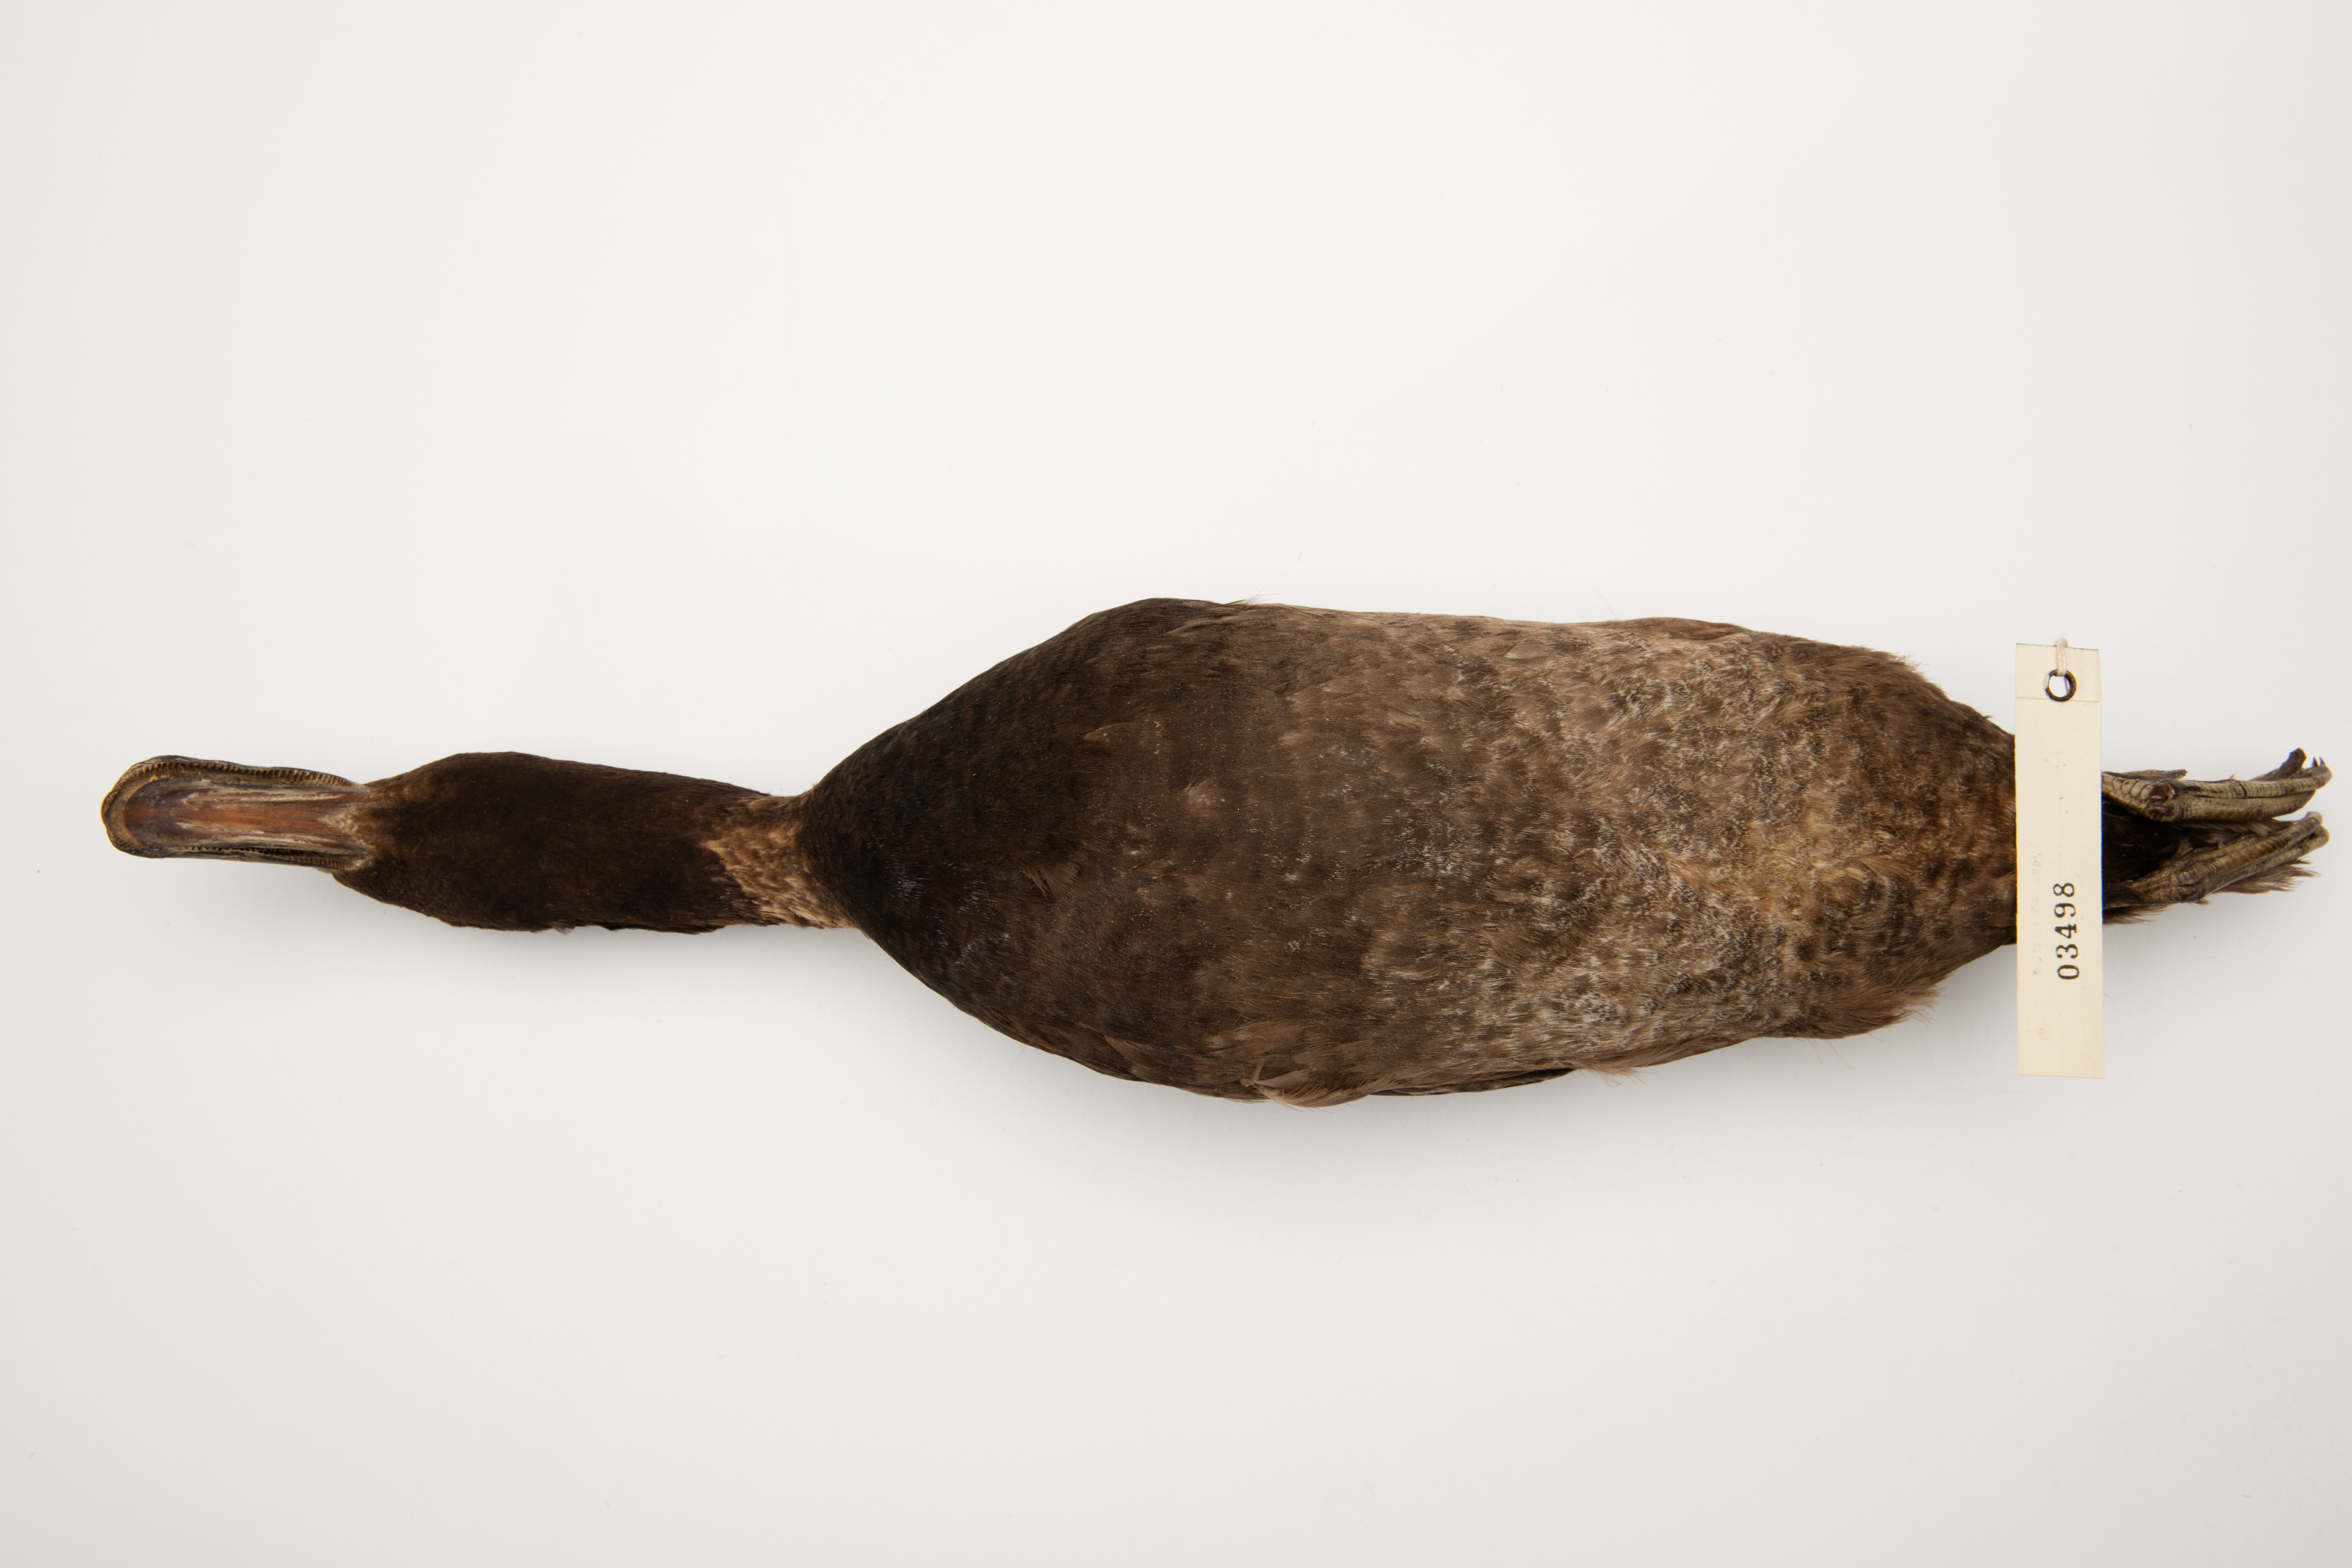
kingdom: Animalia
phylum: Chordata
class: Aves
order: Anseriformes
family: Anatidae
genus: Aythya
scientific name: Aythya novaeseelandiae
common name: New zealand scaup
